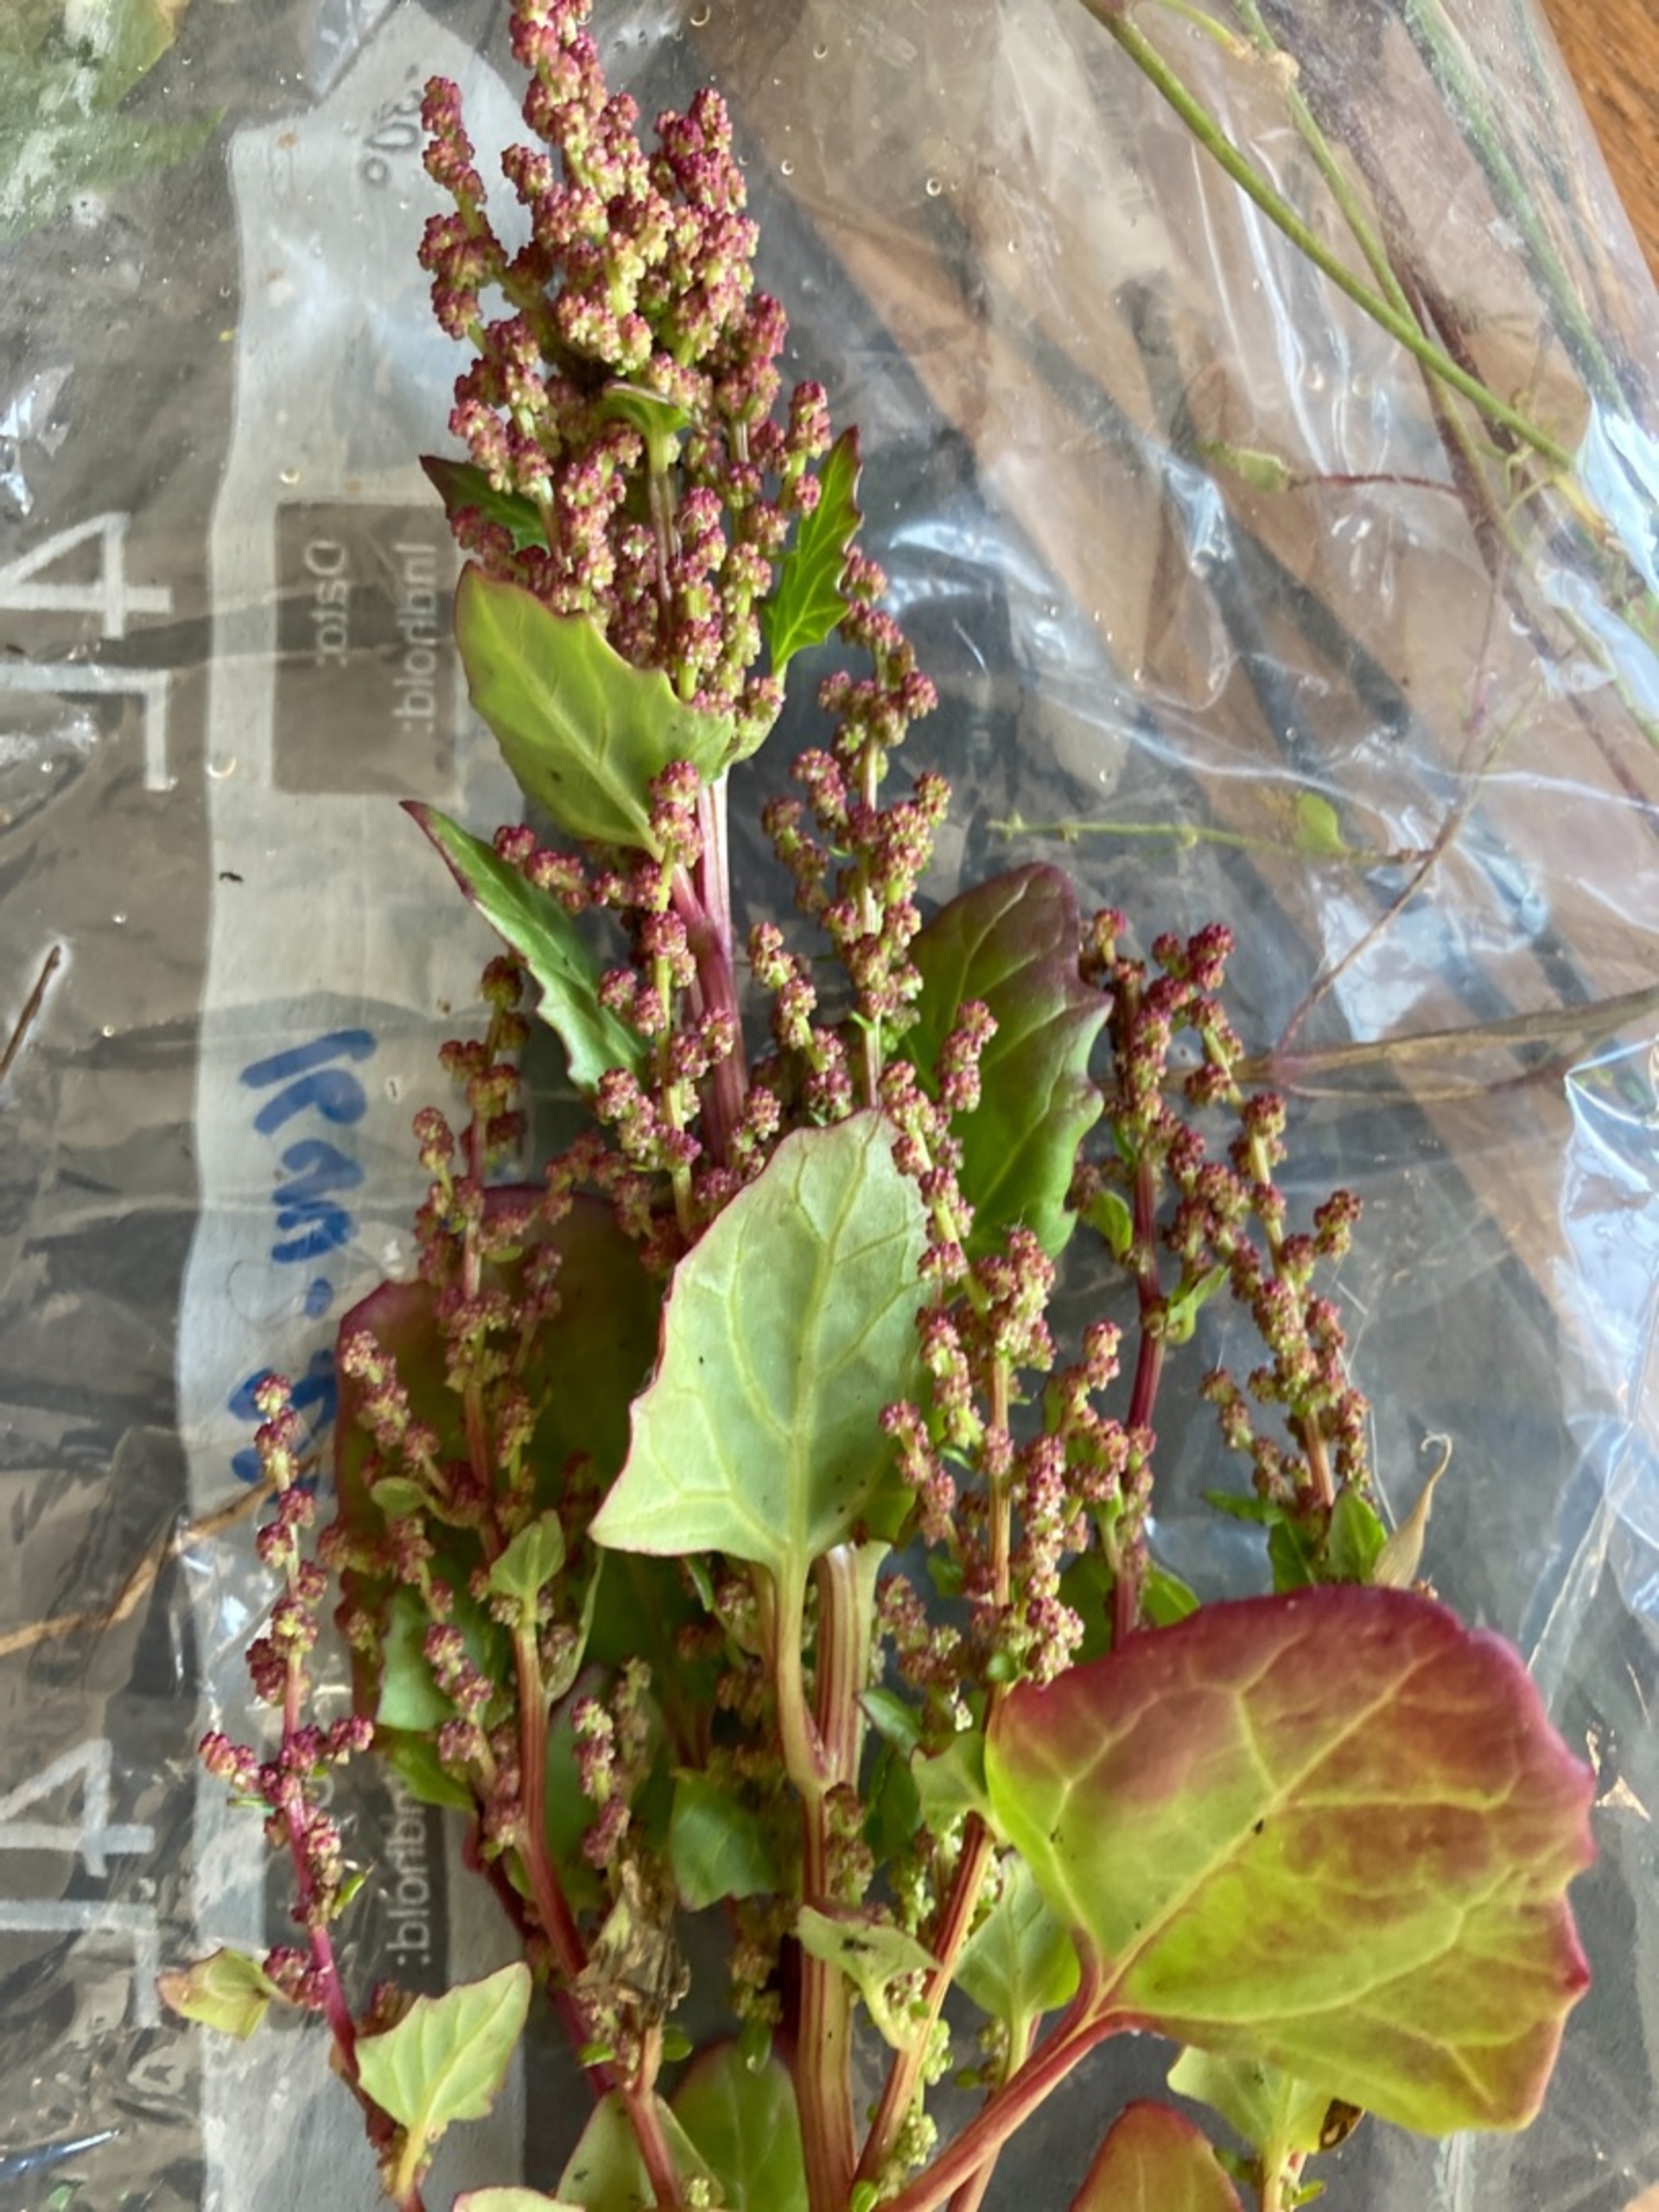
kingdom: Plantae
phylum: Tracheophyta
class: Magnoliopsida
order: Caryophyllales
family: Amaranthaceae
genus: Oxybasis
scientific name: Oxybasis chenopodioides
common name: Drue-gåsefod
